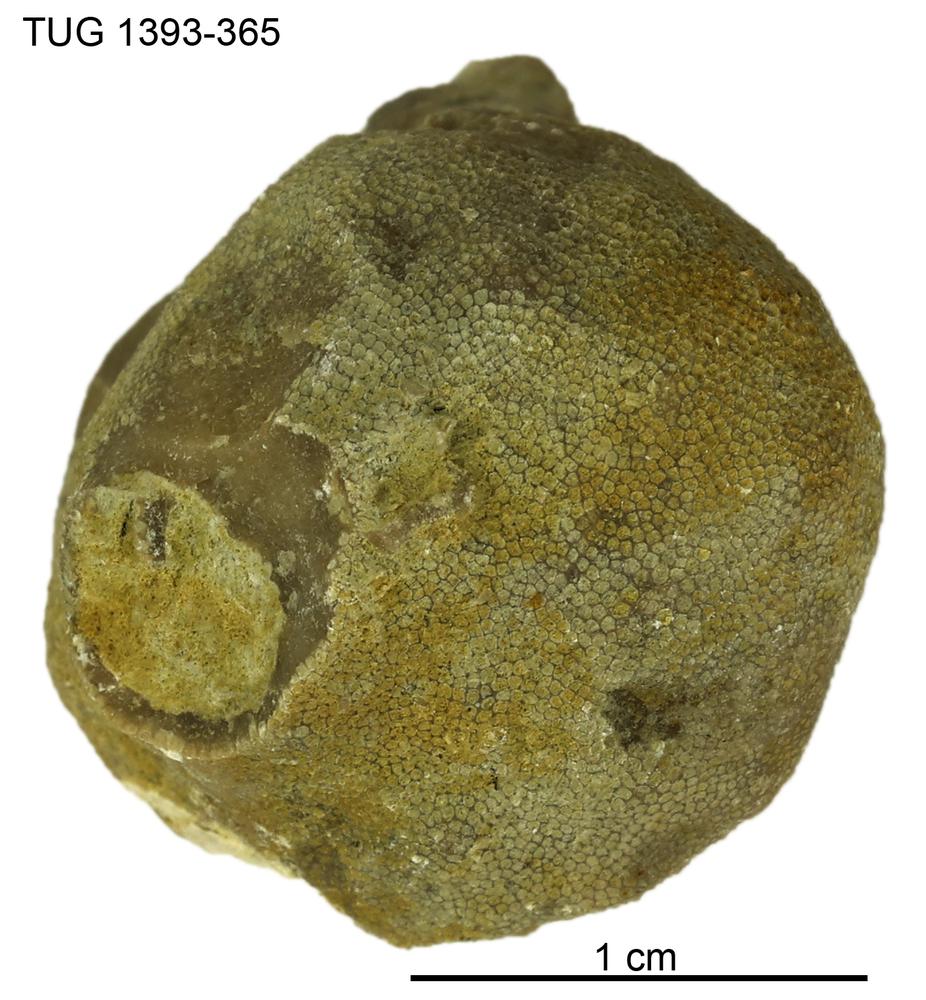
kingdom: Animalia
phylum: Bryozoa
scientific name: Bryozoa
